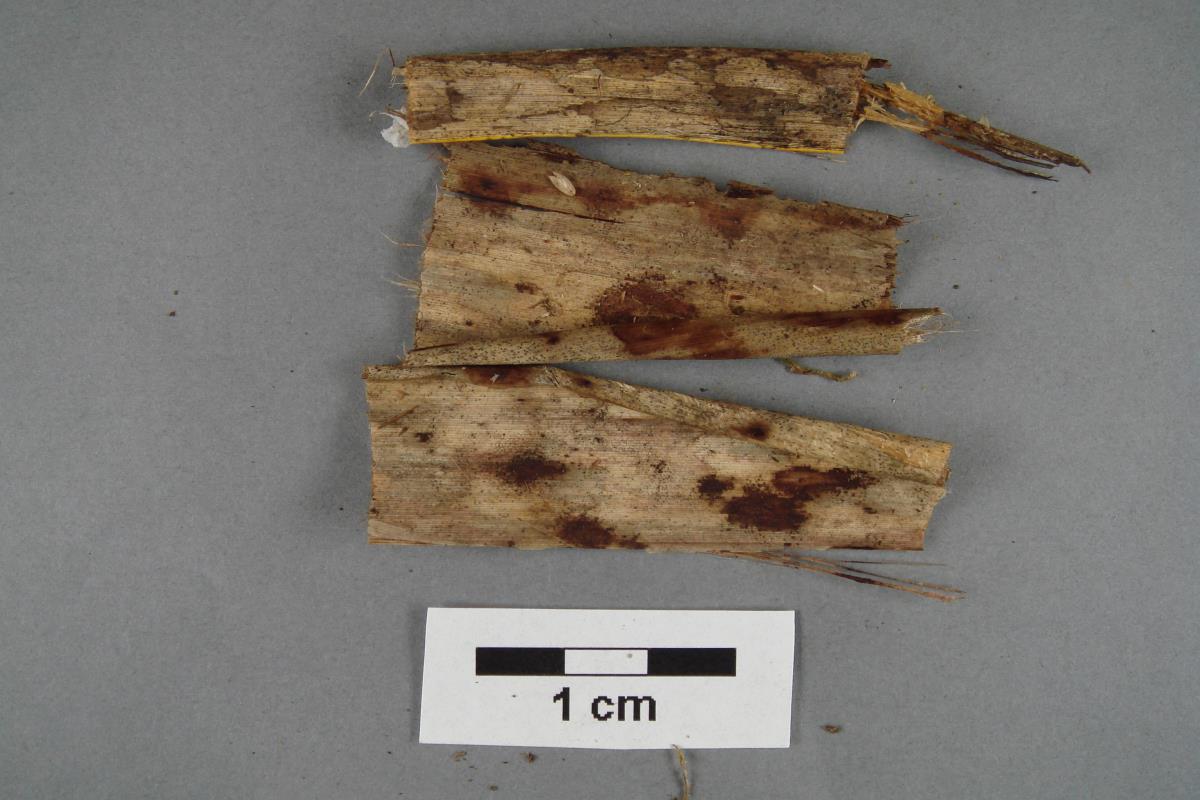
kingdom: Fungi
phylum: Basidiomycota
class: Agaricomycetes
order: Agaricales
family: Omphalotaceae
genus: Marasmiellus
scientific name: Marasmiellus bonii
